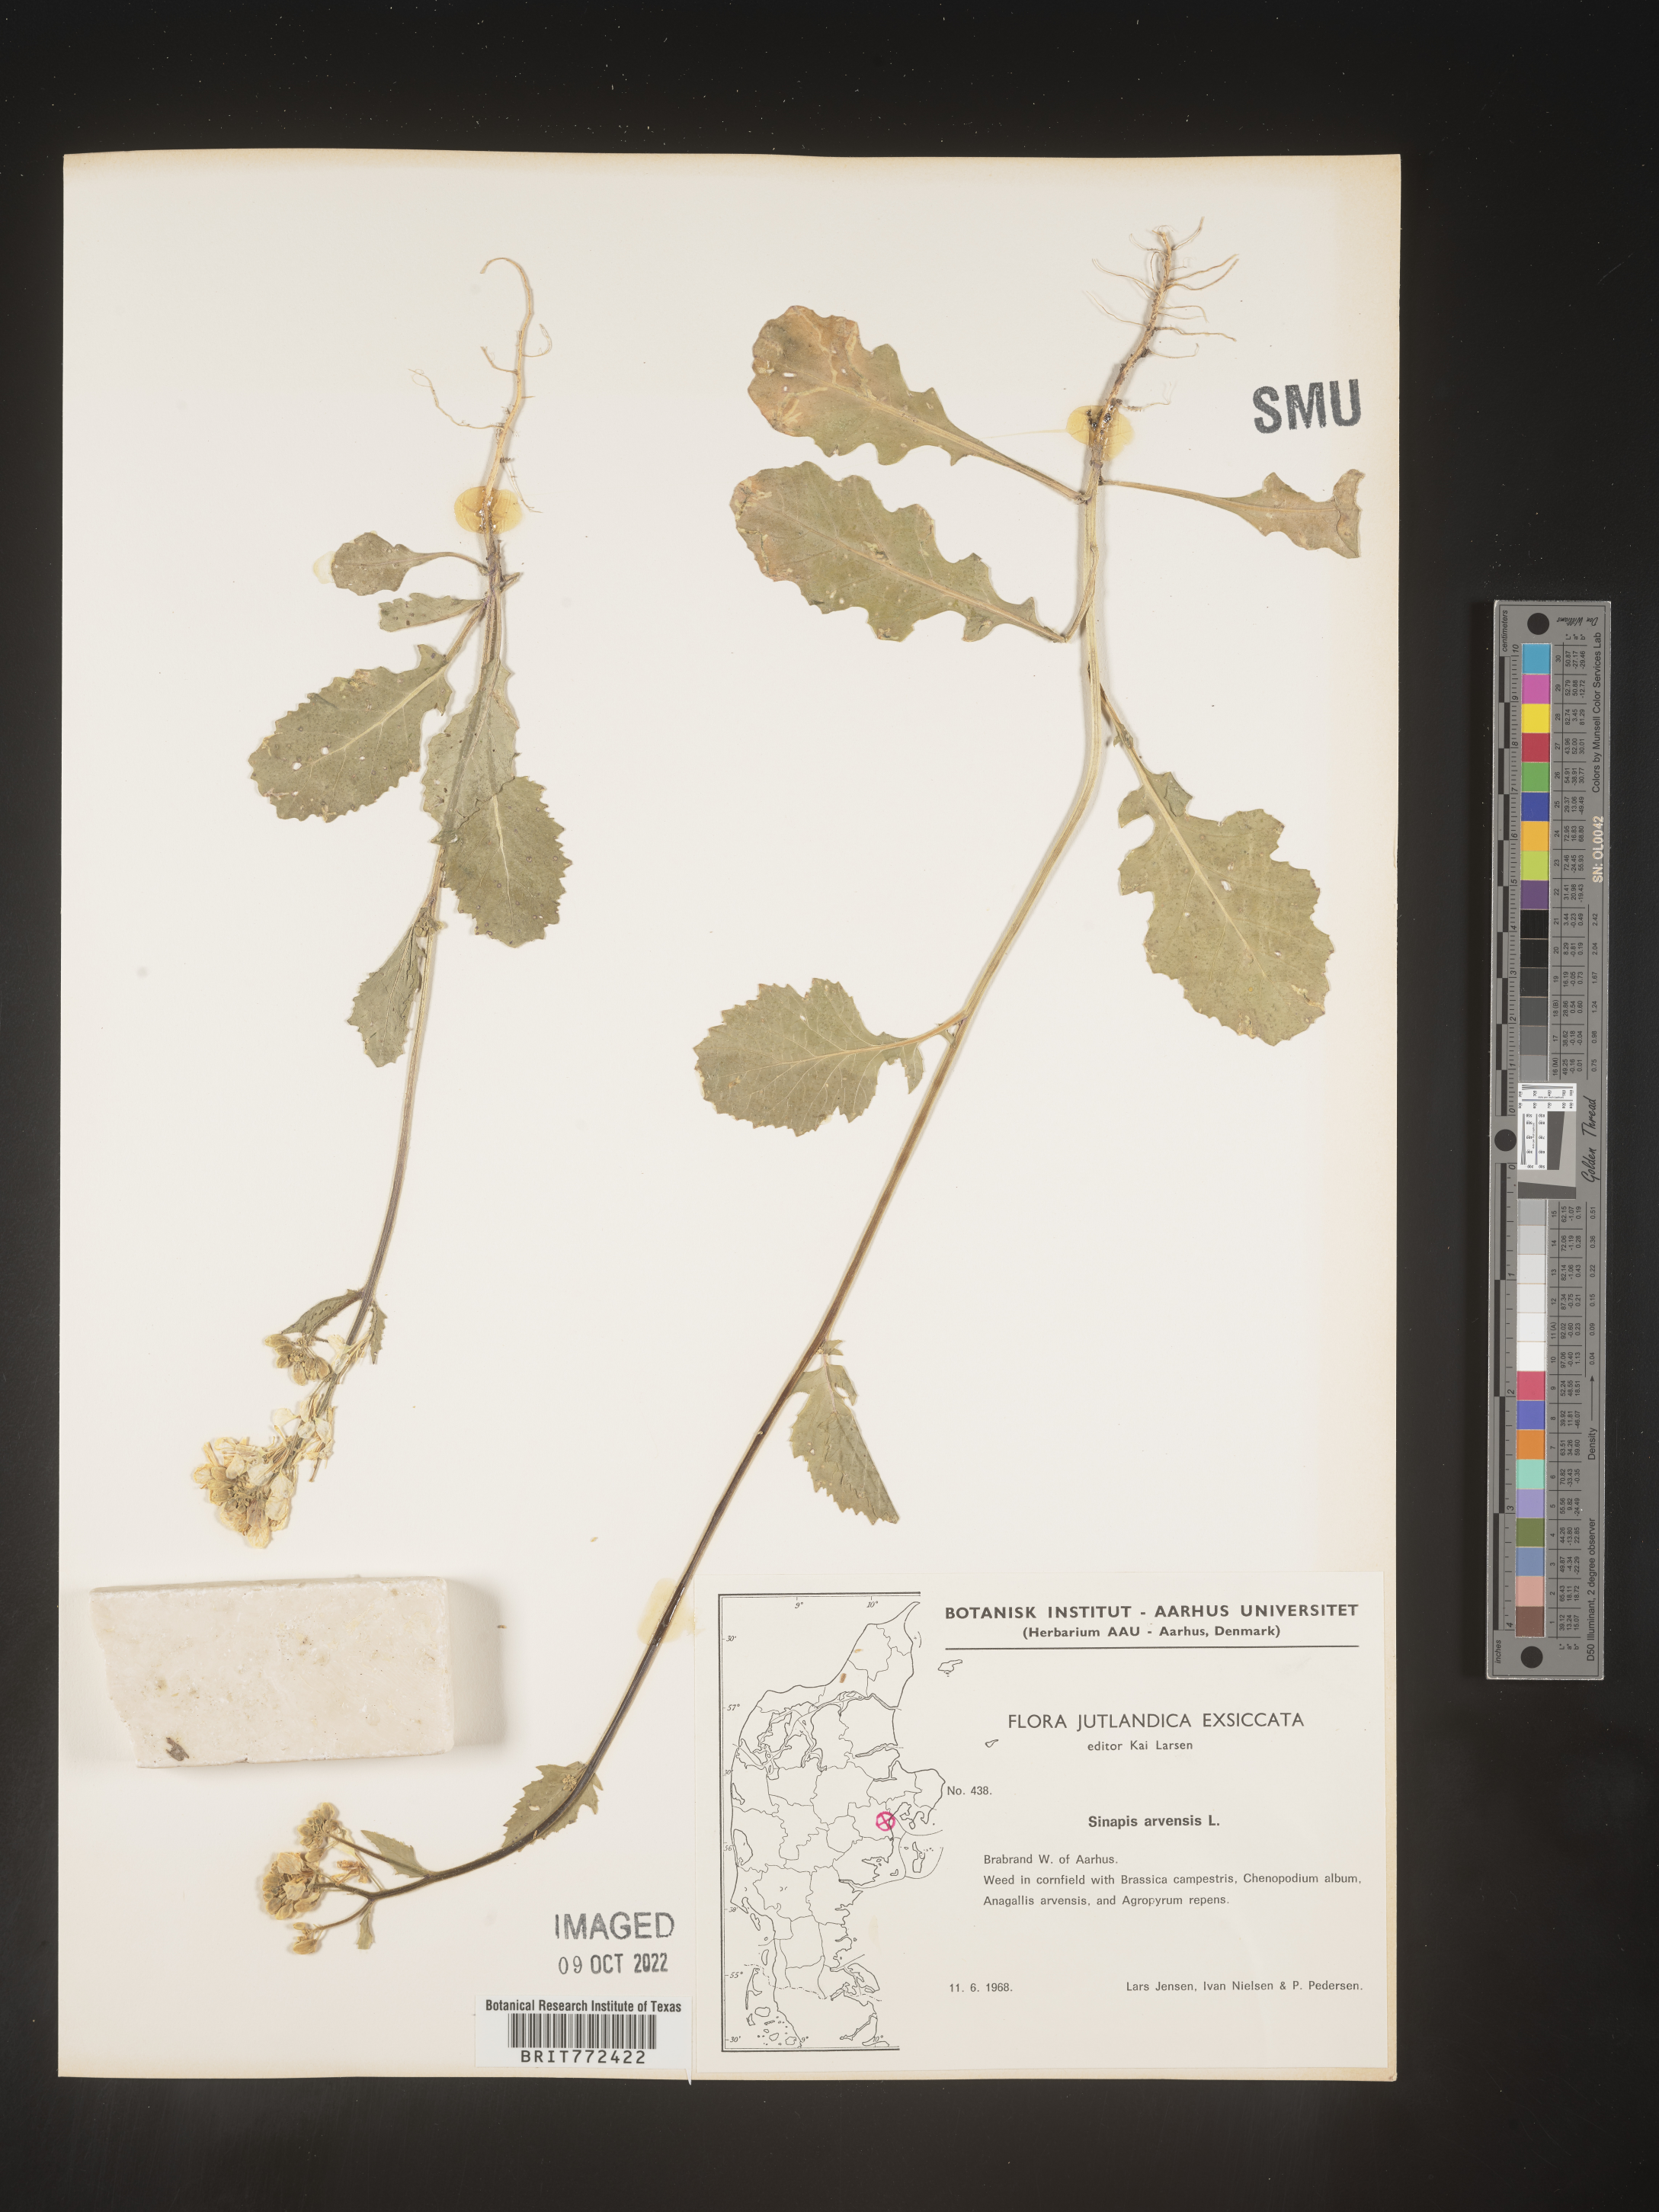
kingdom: Plantae
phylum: Tracheophyta
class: Magnoliopsida
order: Brassicales
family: Brassicaceae
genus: Brassica
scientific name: Brassica
